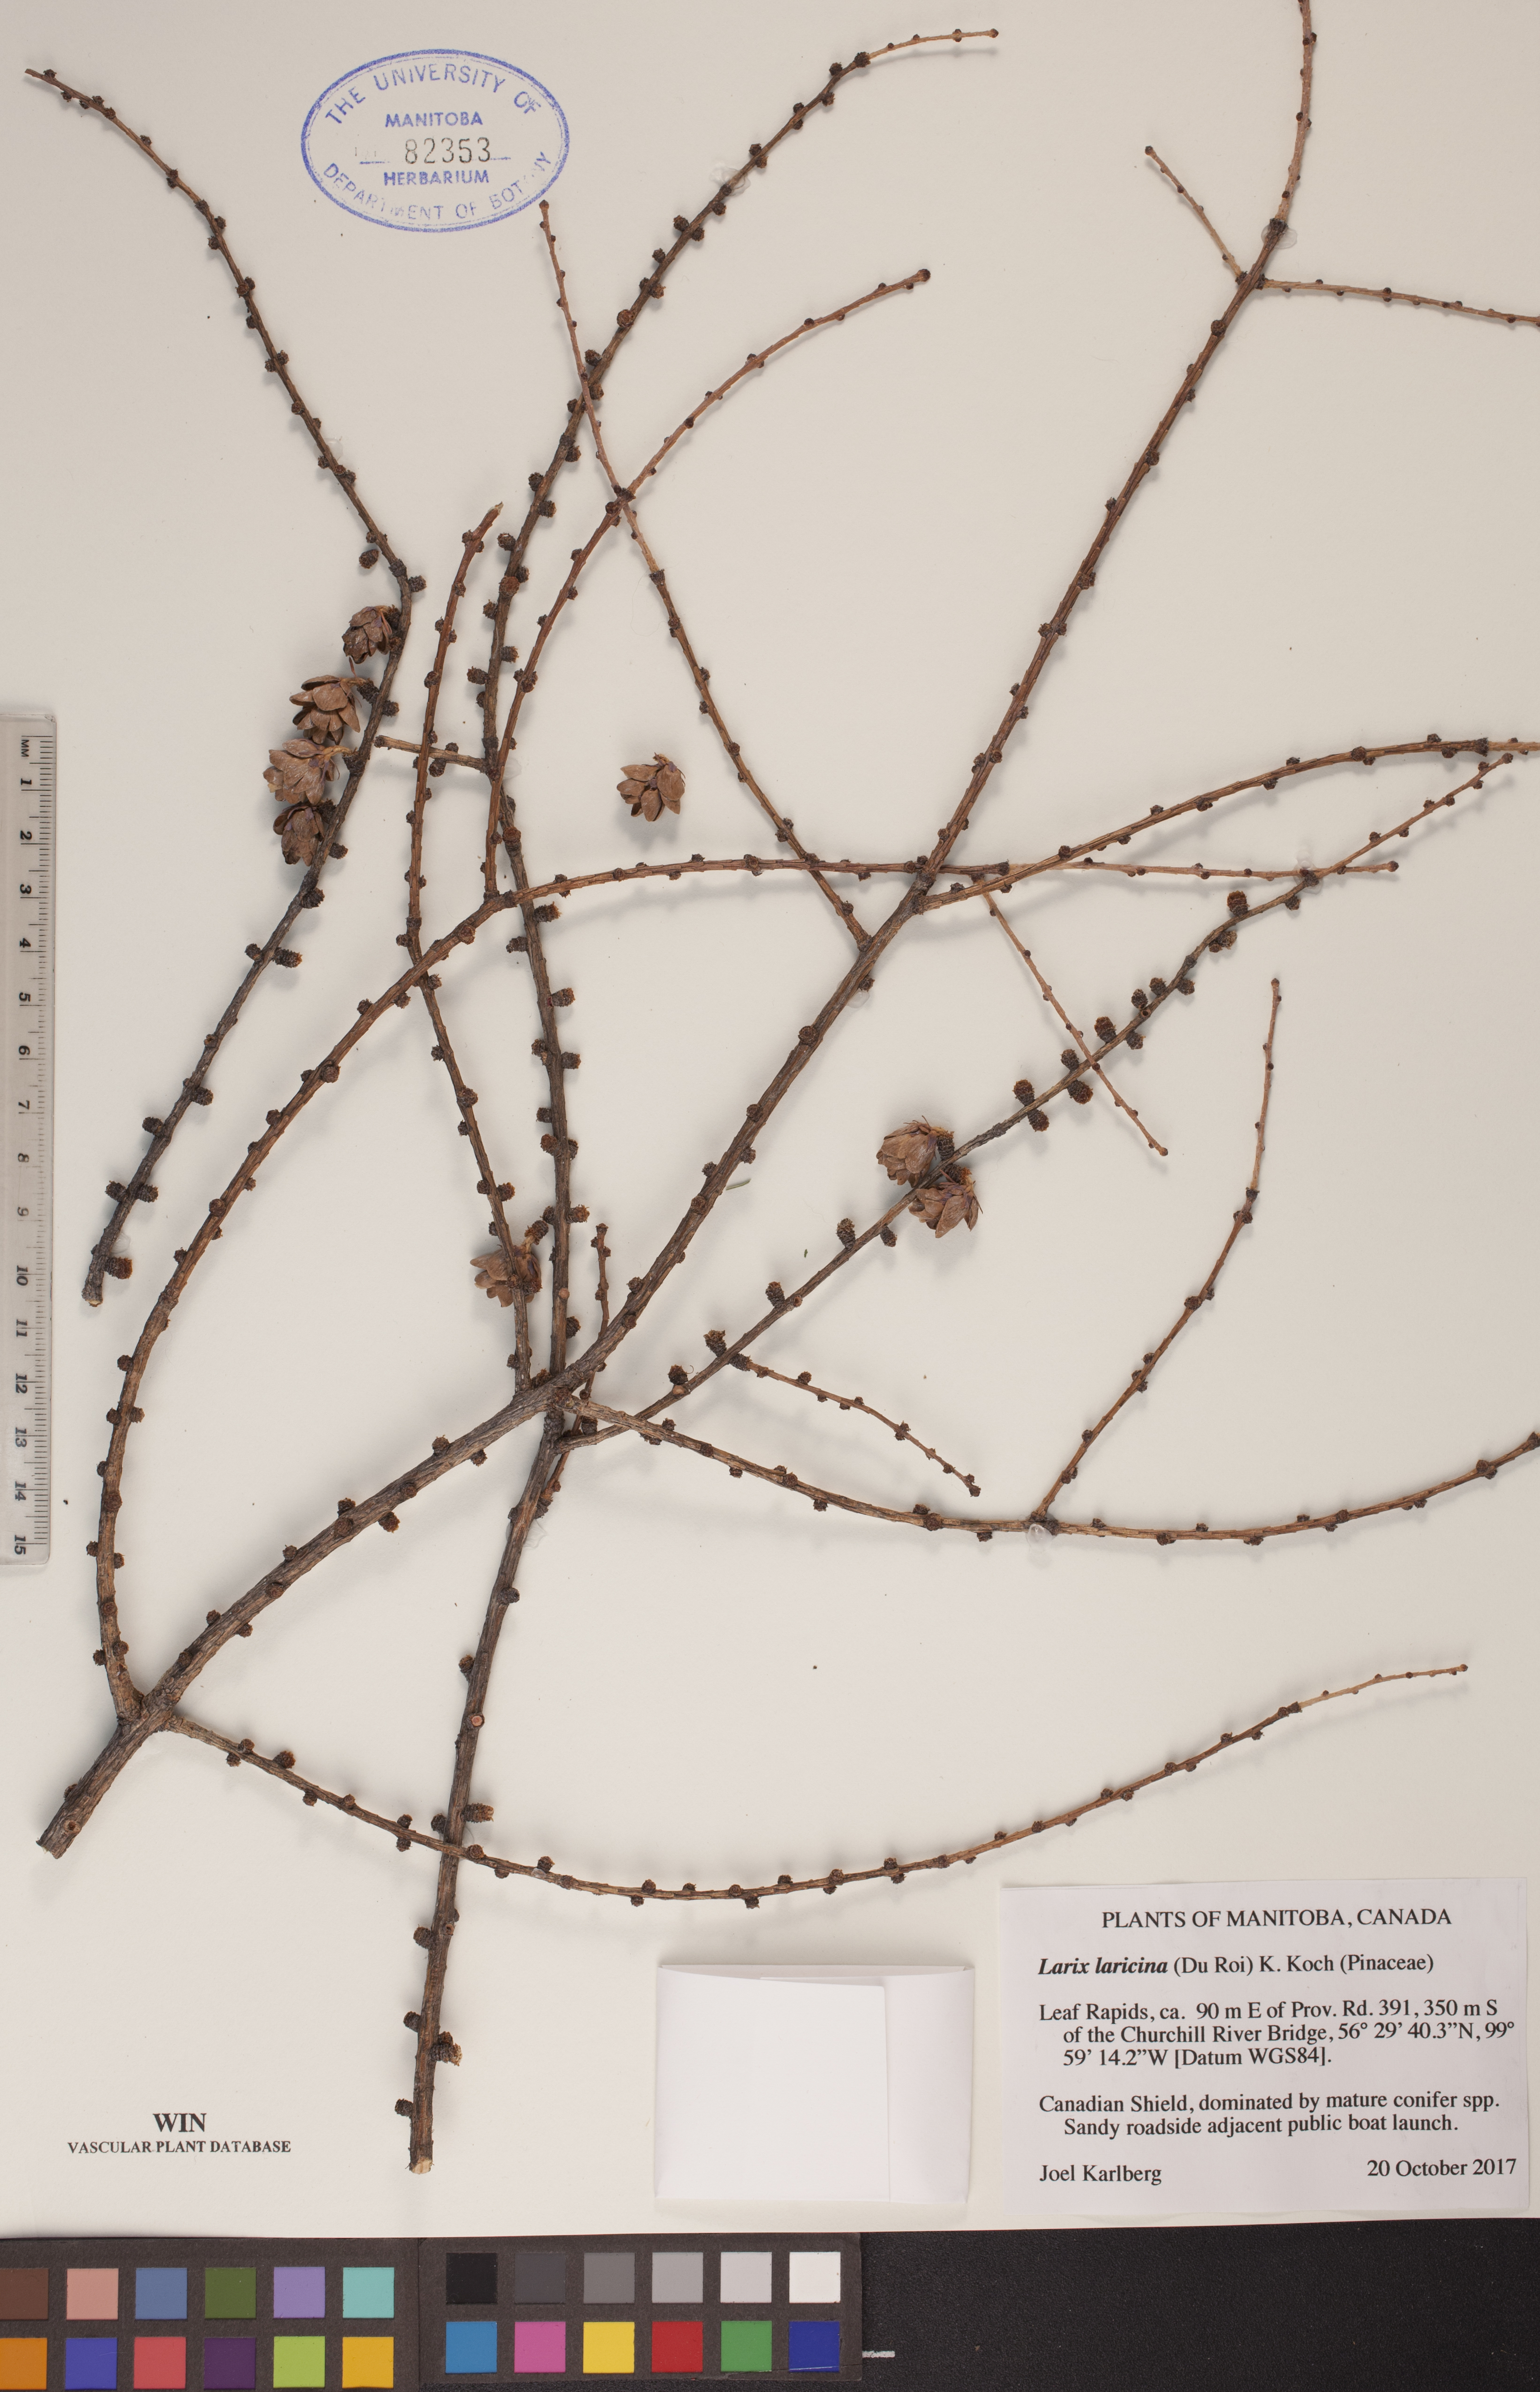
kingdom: Plantae
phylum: Tracheophyta
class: Pinopsida
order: Pinales
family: Pinaceae
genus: Larix
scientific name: Larix laricina
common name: American larch
